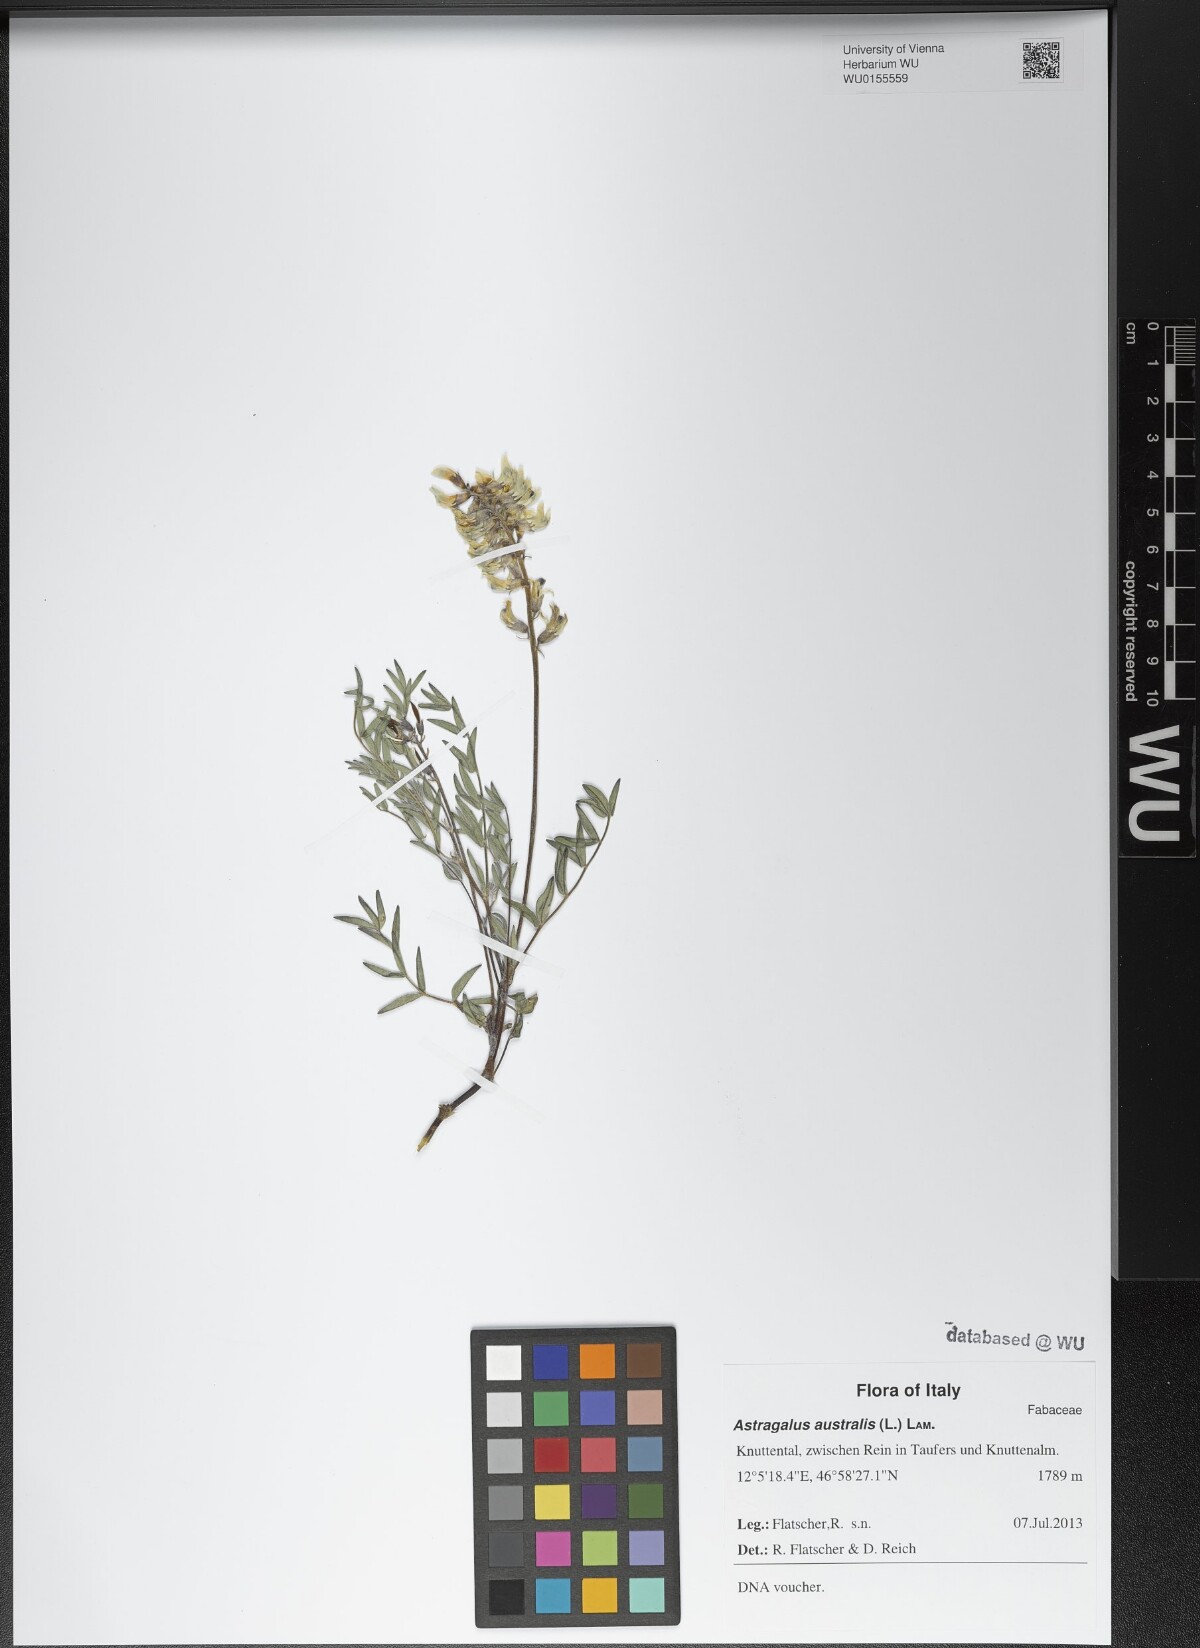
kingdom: Plantae
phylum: Tracheophyta
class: Magnoliopsida
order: Fabales
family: Fabaceae
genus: Astragalus
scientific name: Astragalus australis
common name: Indian milk-vetch
